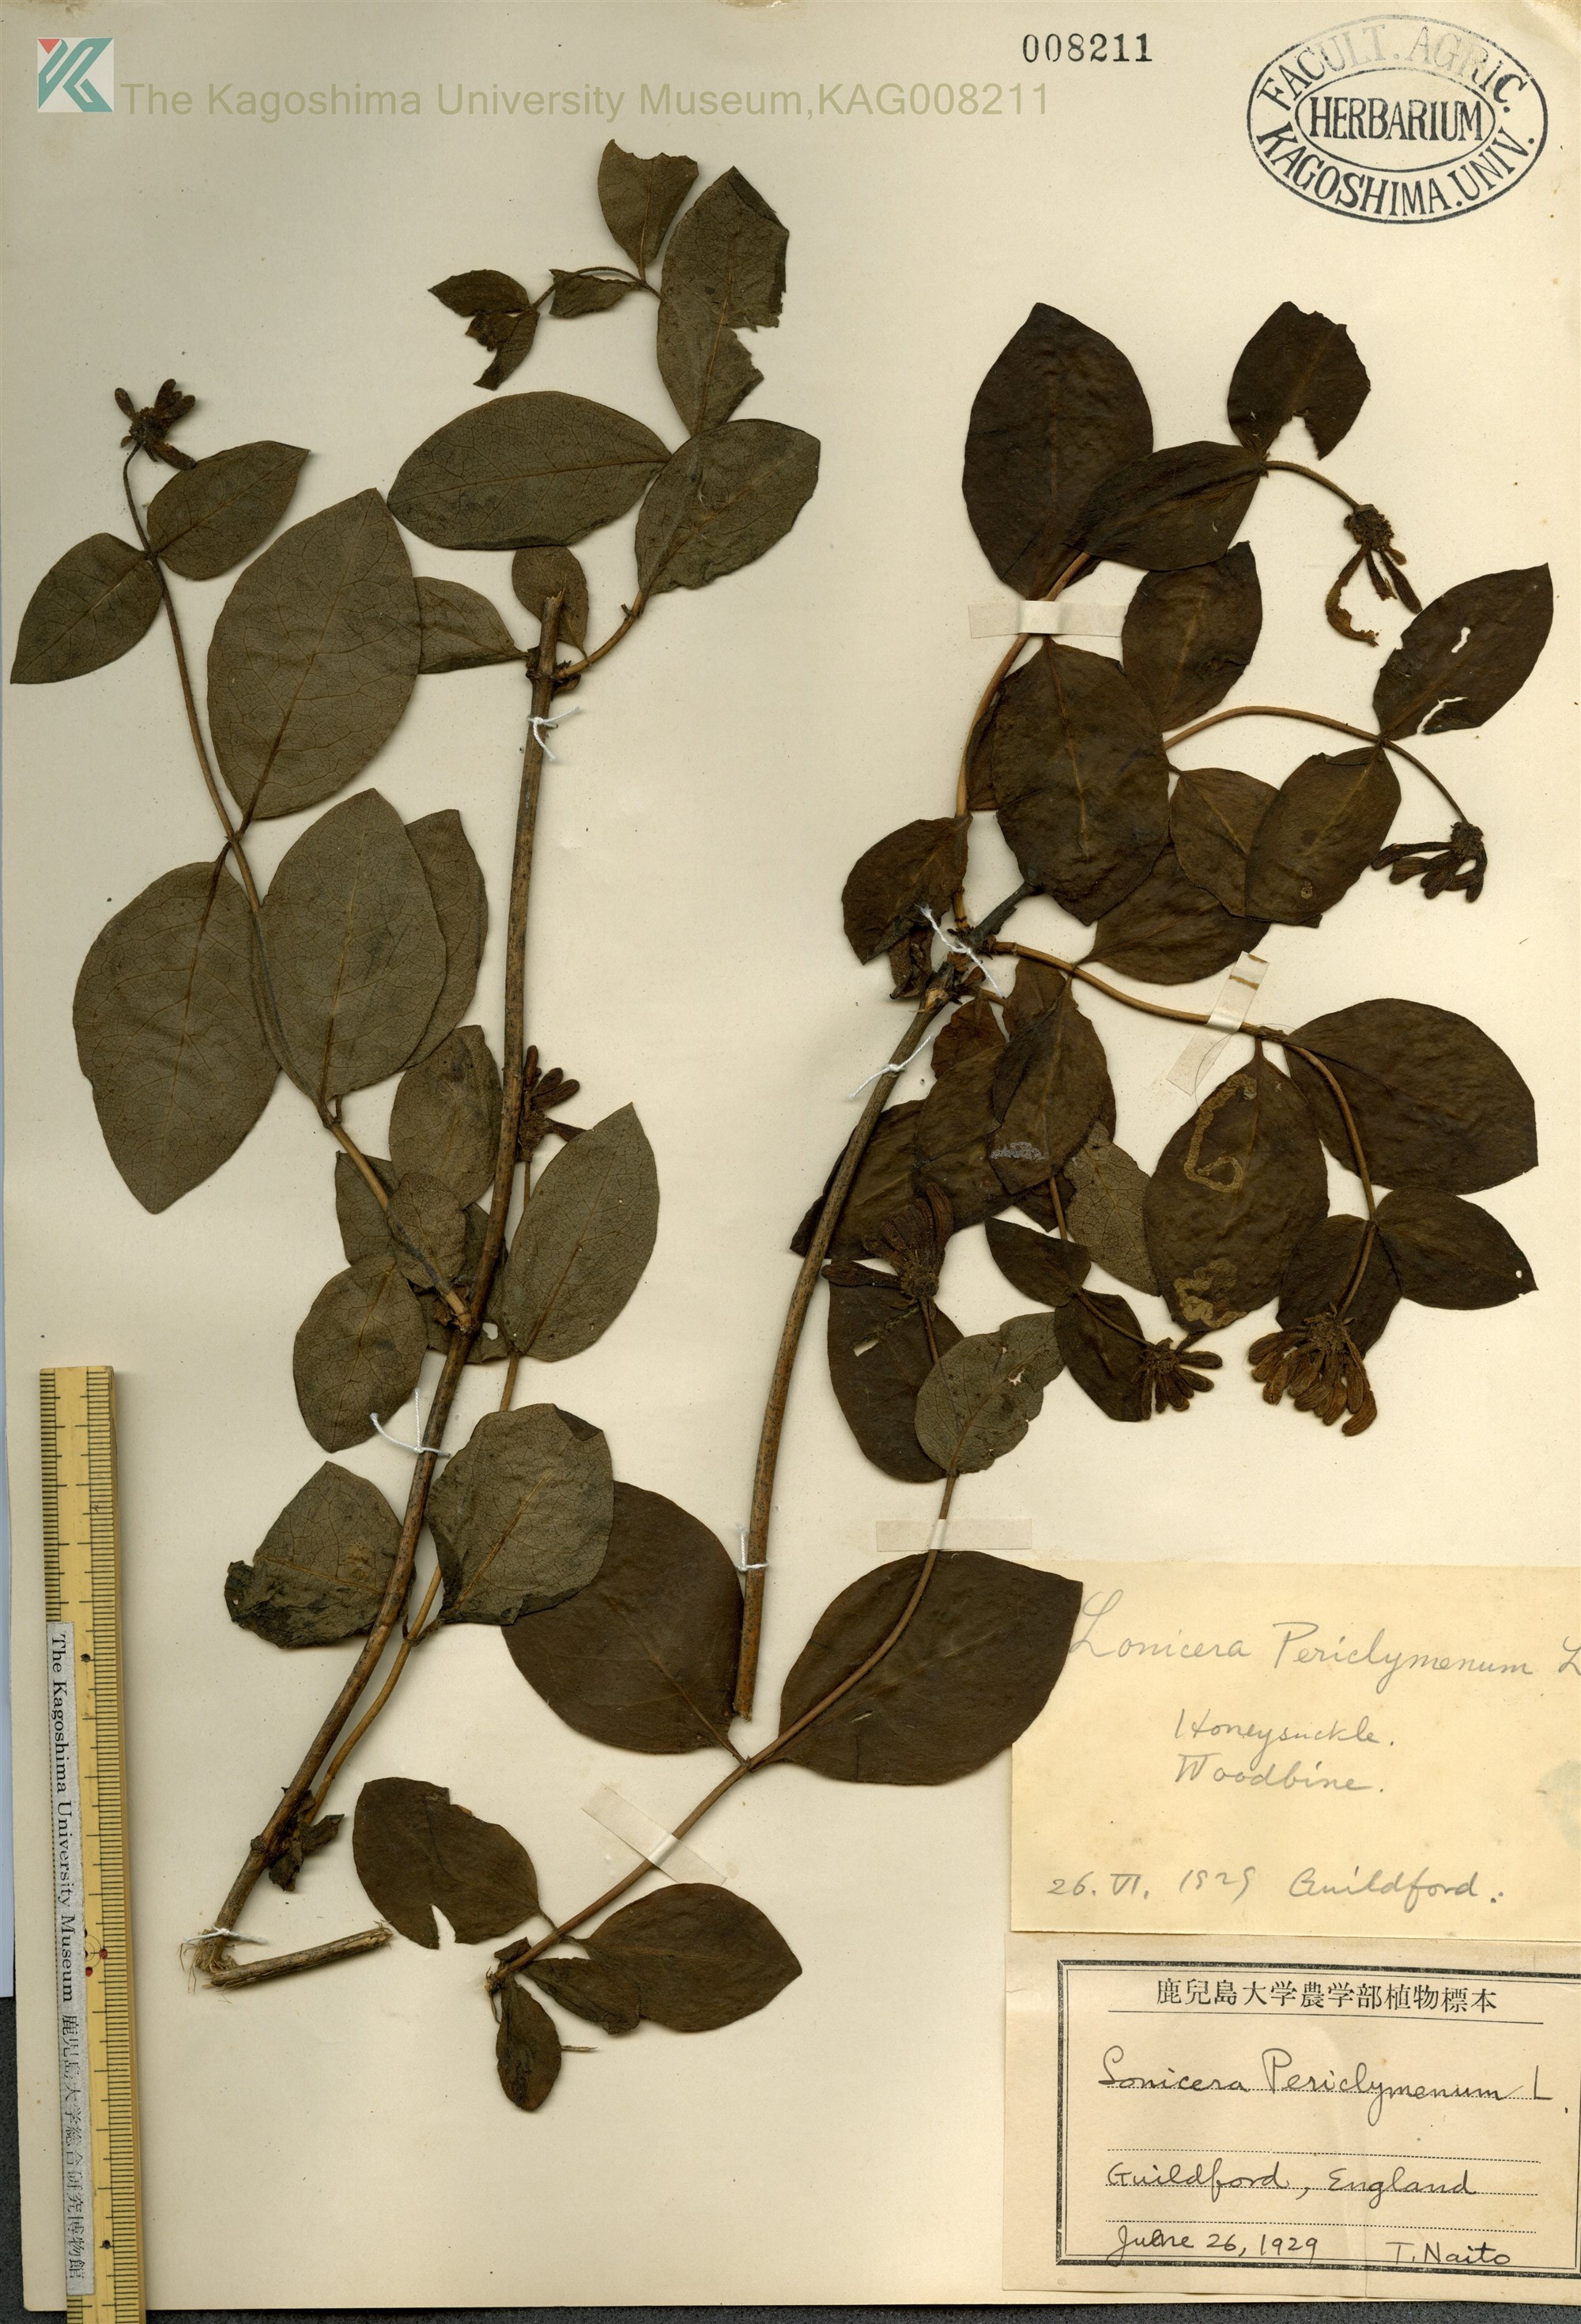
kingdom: Plantae
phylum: Tracheophyta
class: Magnoliopsida
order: Dipsacales
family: Caprifoliaceae
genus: Lonicera
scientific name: Lonicera periclymenum
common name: European honeysuckle
